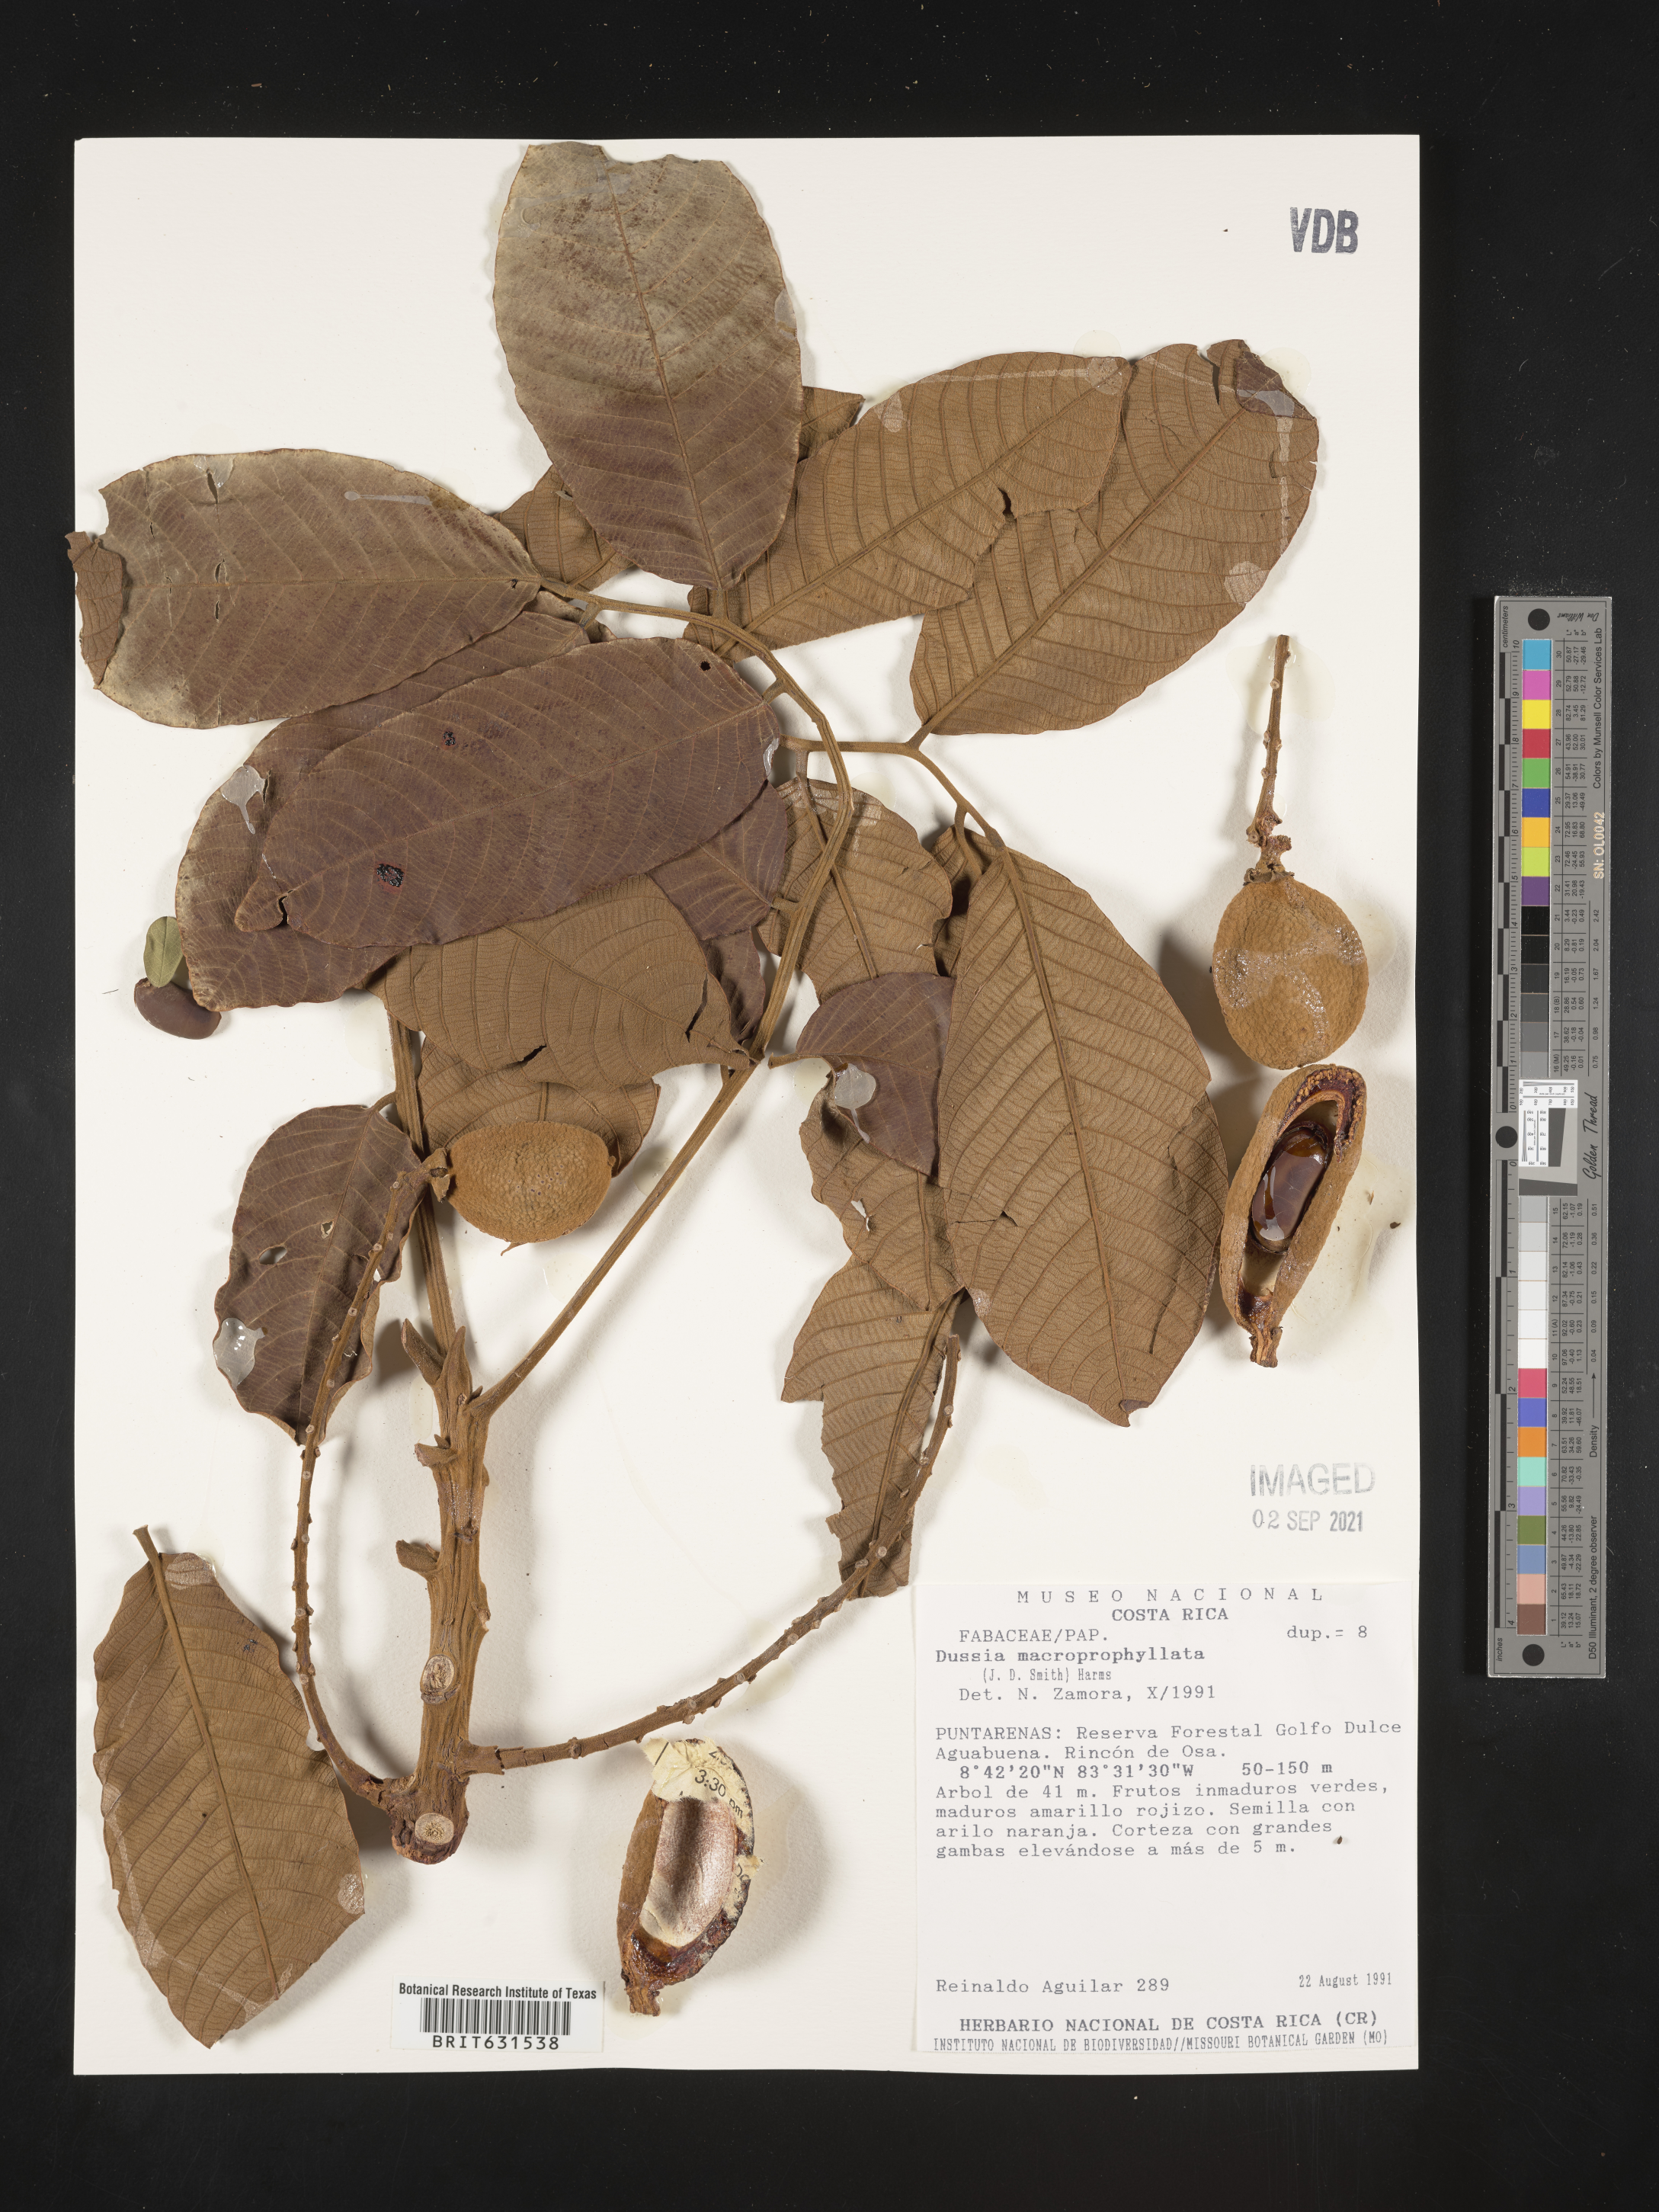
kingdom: Plantae
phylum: Tracheophyta
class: Magnoliopsida
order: Fabales
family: Fabaceae
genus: Dussia
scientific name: Dussia macroprophyllata
